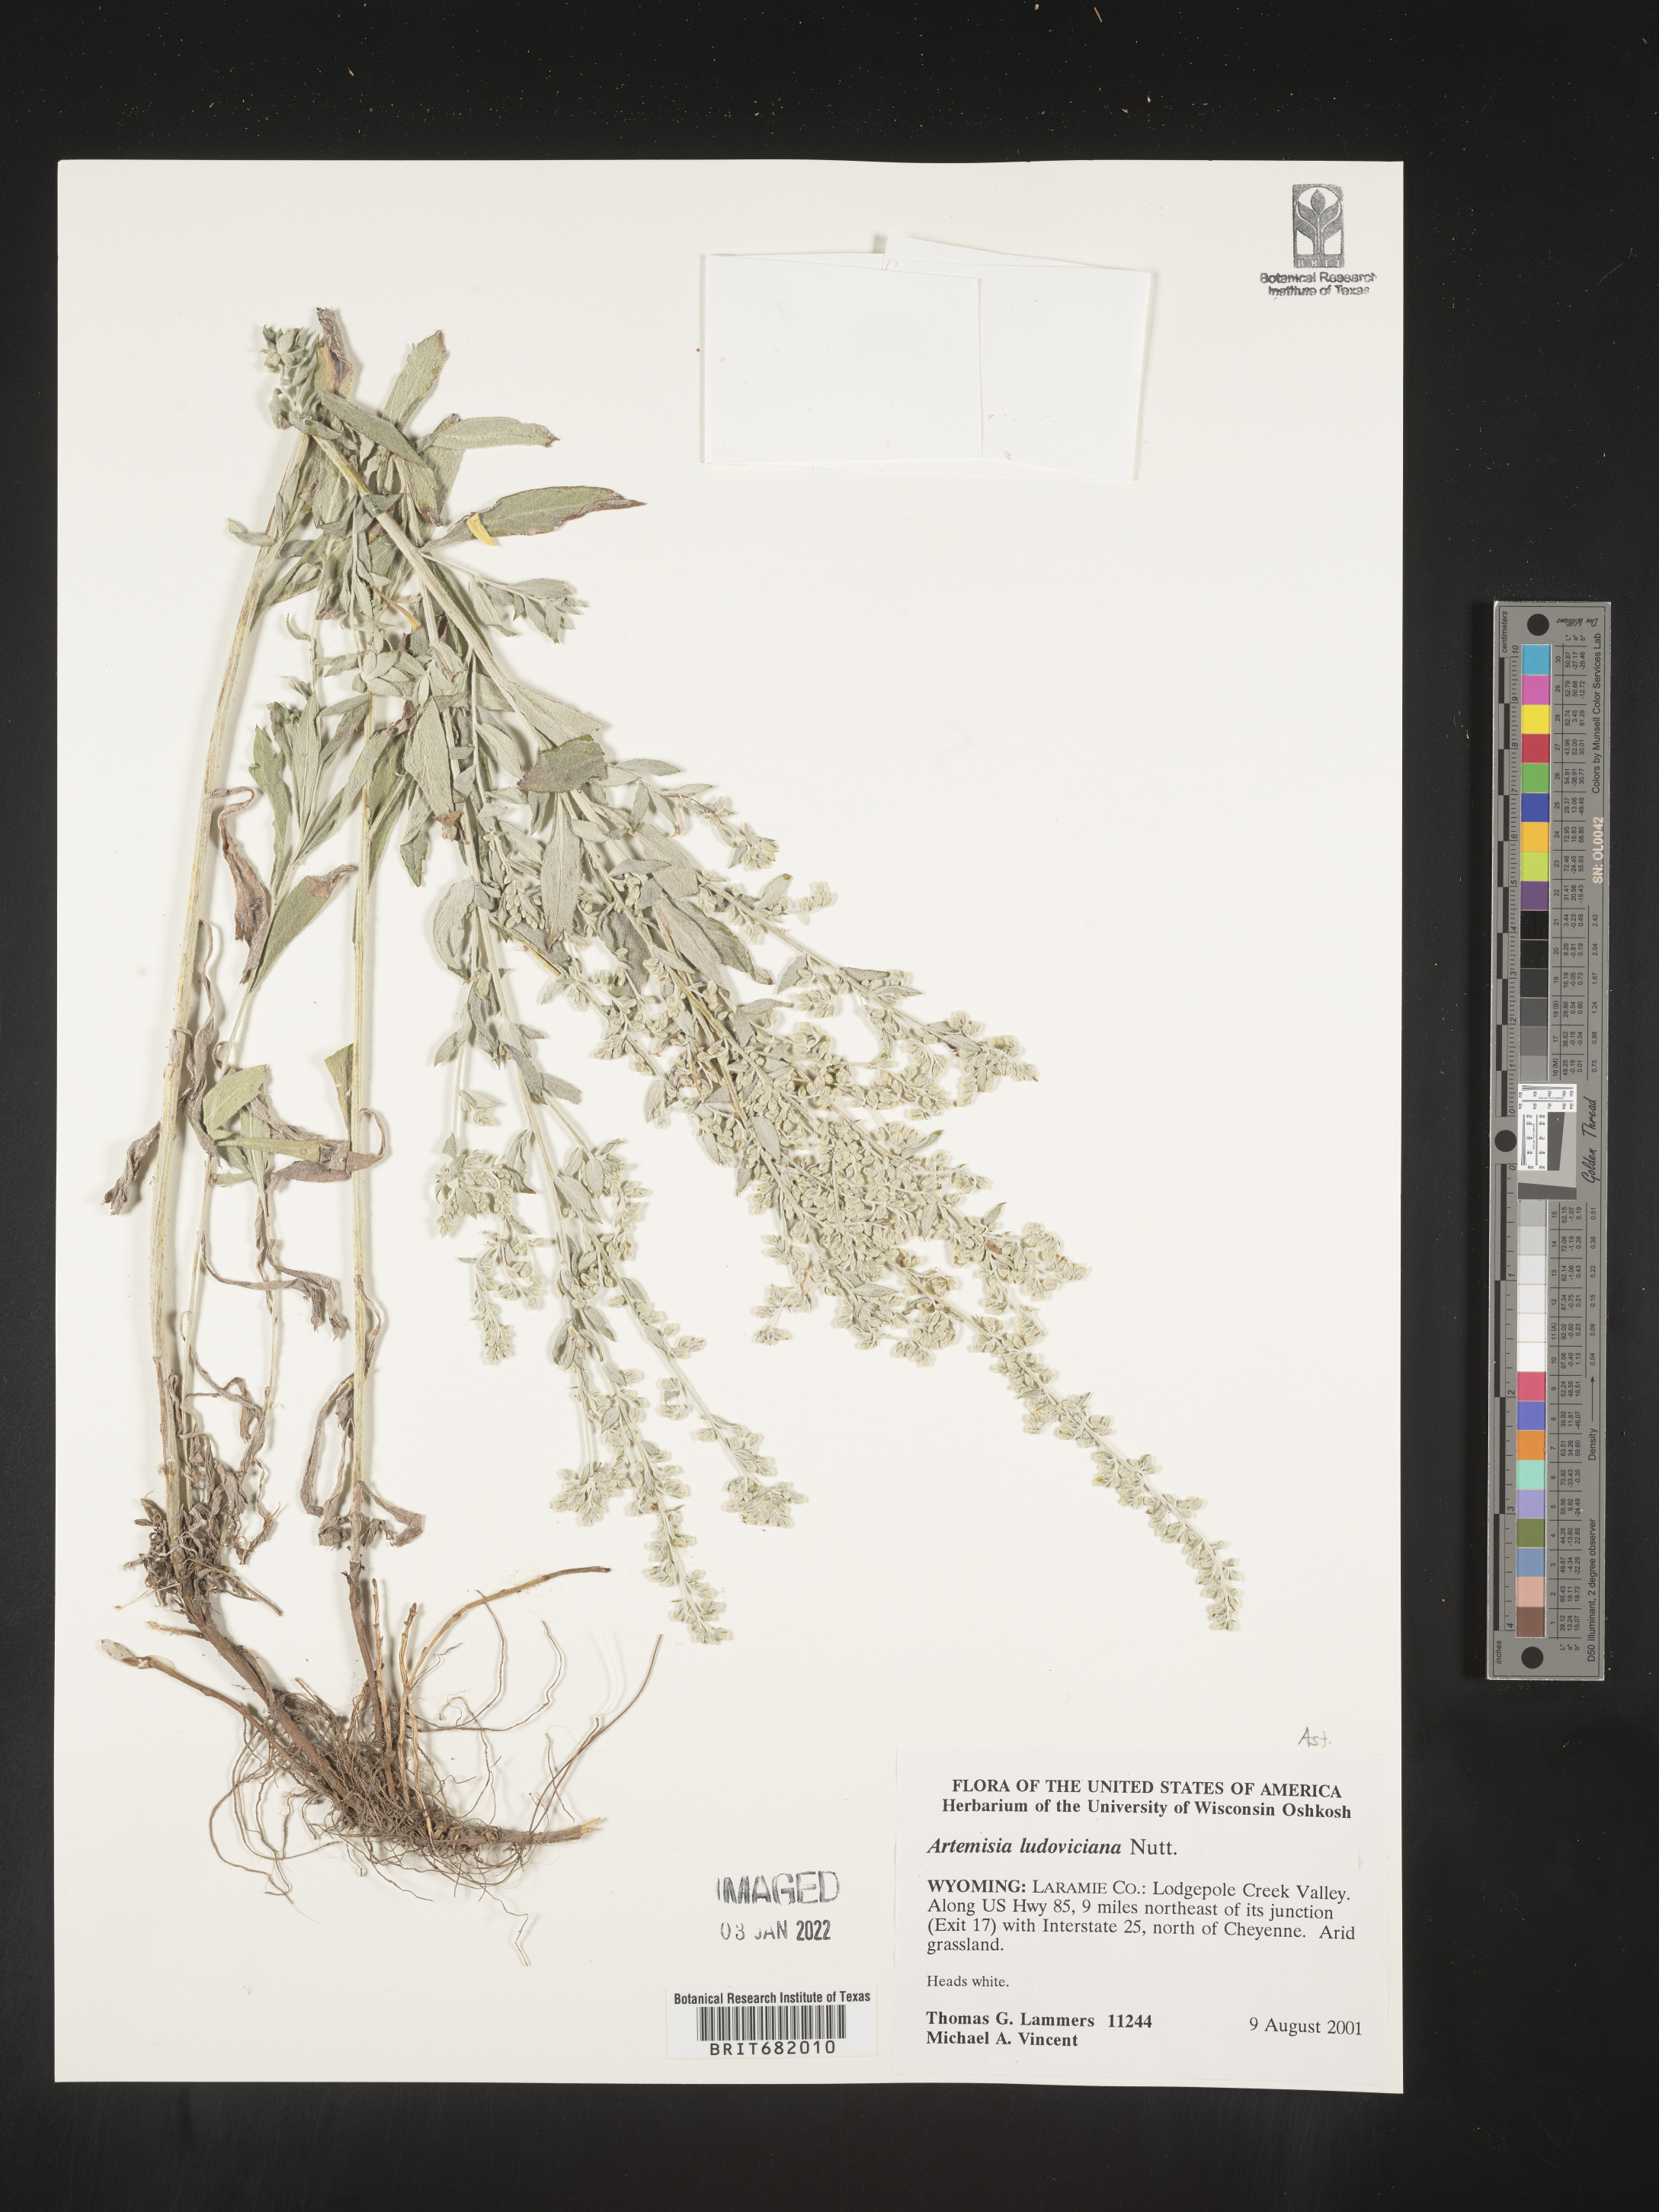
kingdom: Plantae
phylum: Tracheophyta
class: Magnoliopsida
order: Asterales
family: Asteraceae
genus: Artemisia
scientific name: Artemisia ludoviciana
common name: Western mugwort
